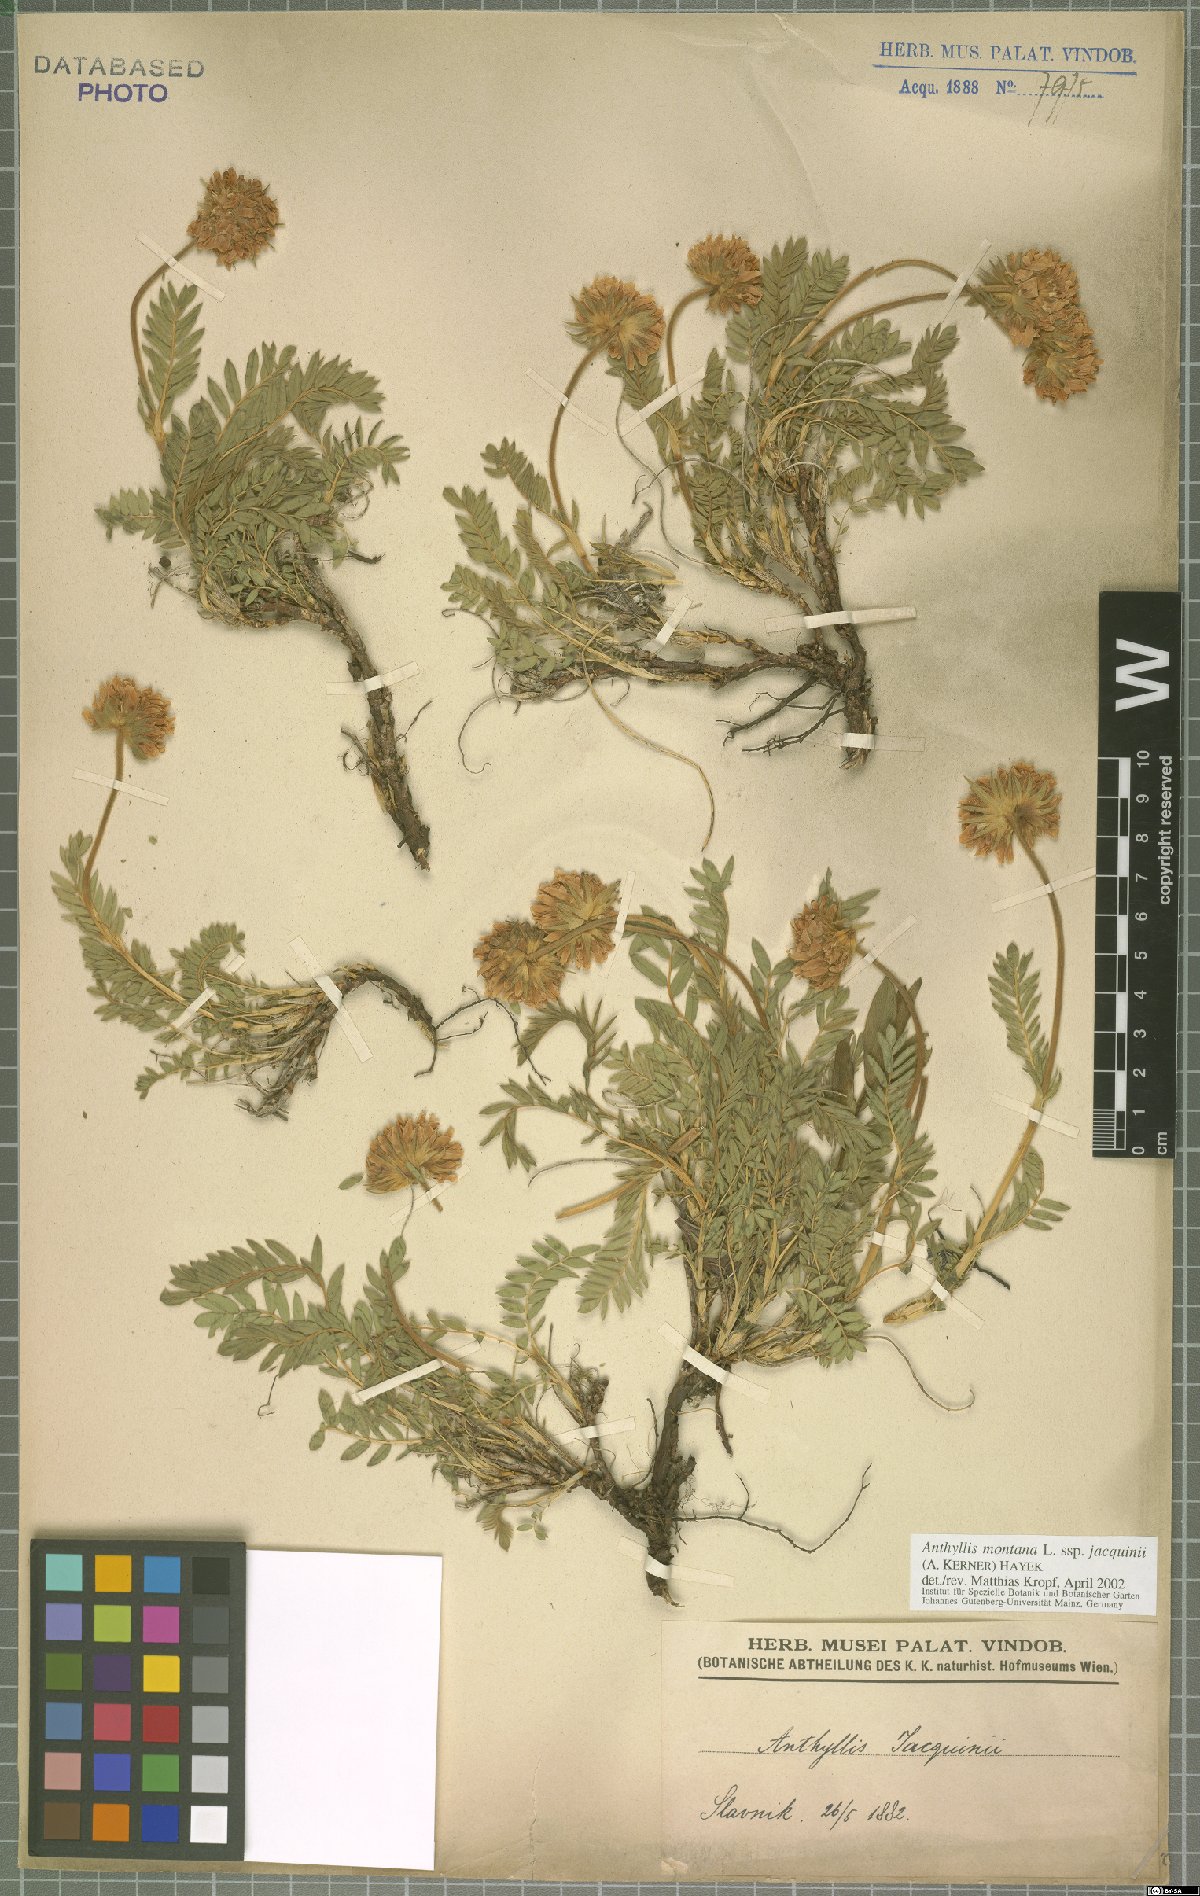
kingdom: Plantae
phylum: Tracheophyta
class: Magnoliopsida
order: Fabales
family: Fabaceae
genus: Anthyllis
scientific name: Anthyllis montana
